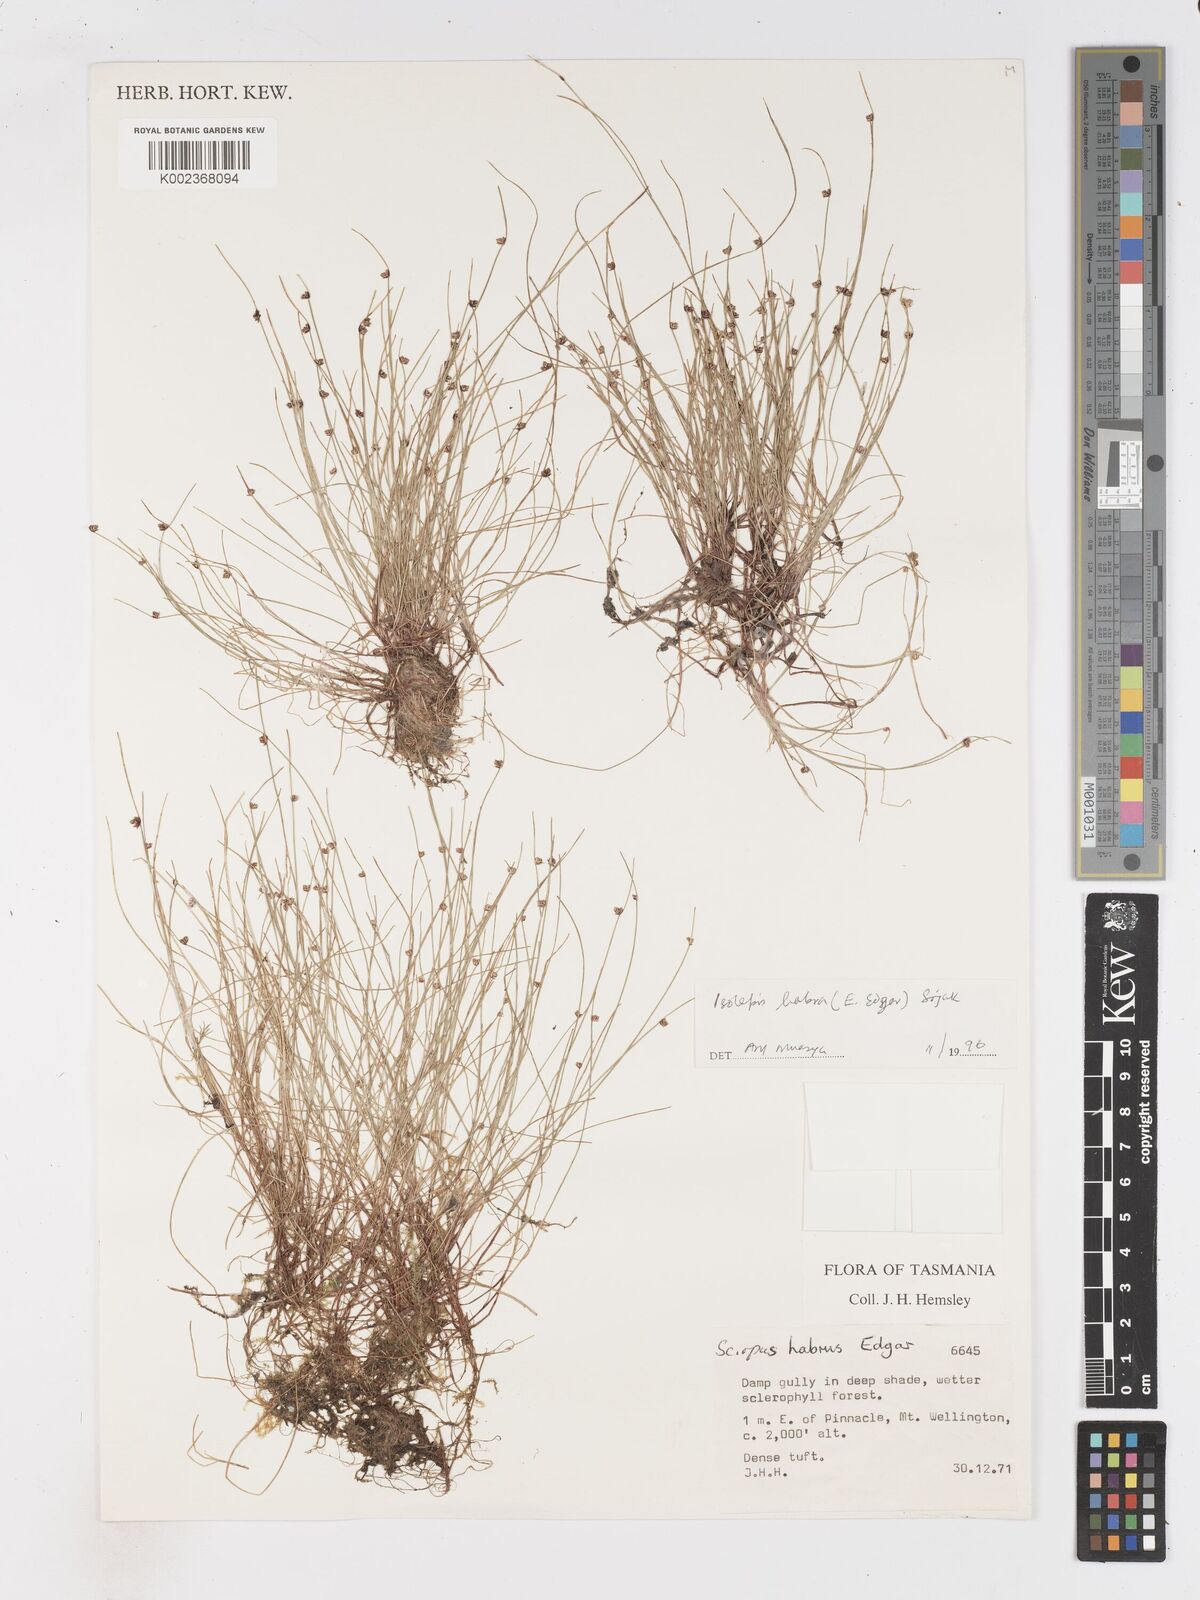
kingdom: Plantae
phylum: Tracheophyta
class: Liliopsida
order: Poales
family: Cyperaceae
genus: Isolepis
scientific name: Isolepis habra
